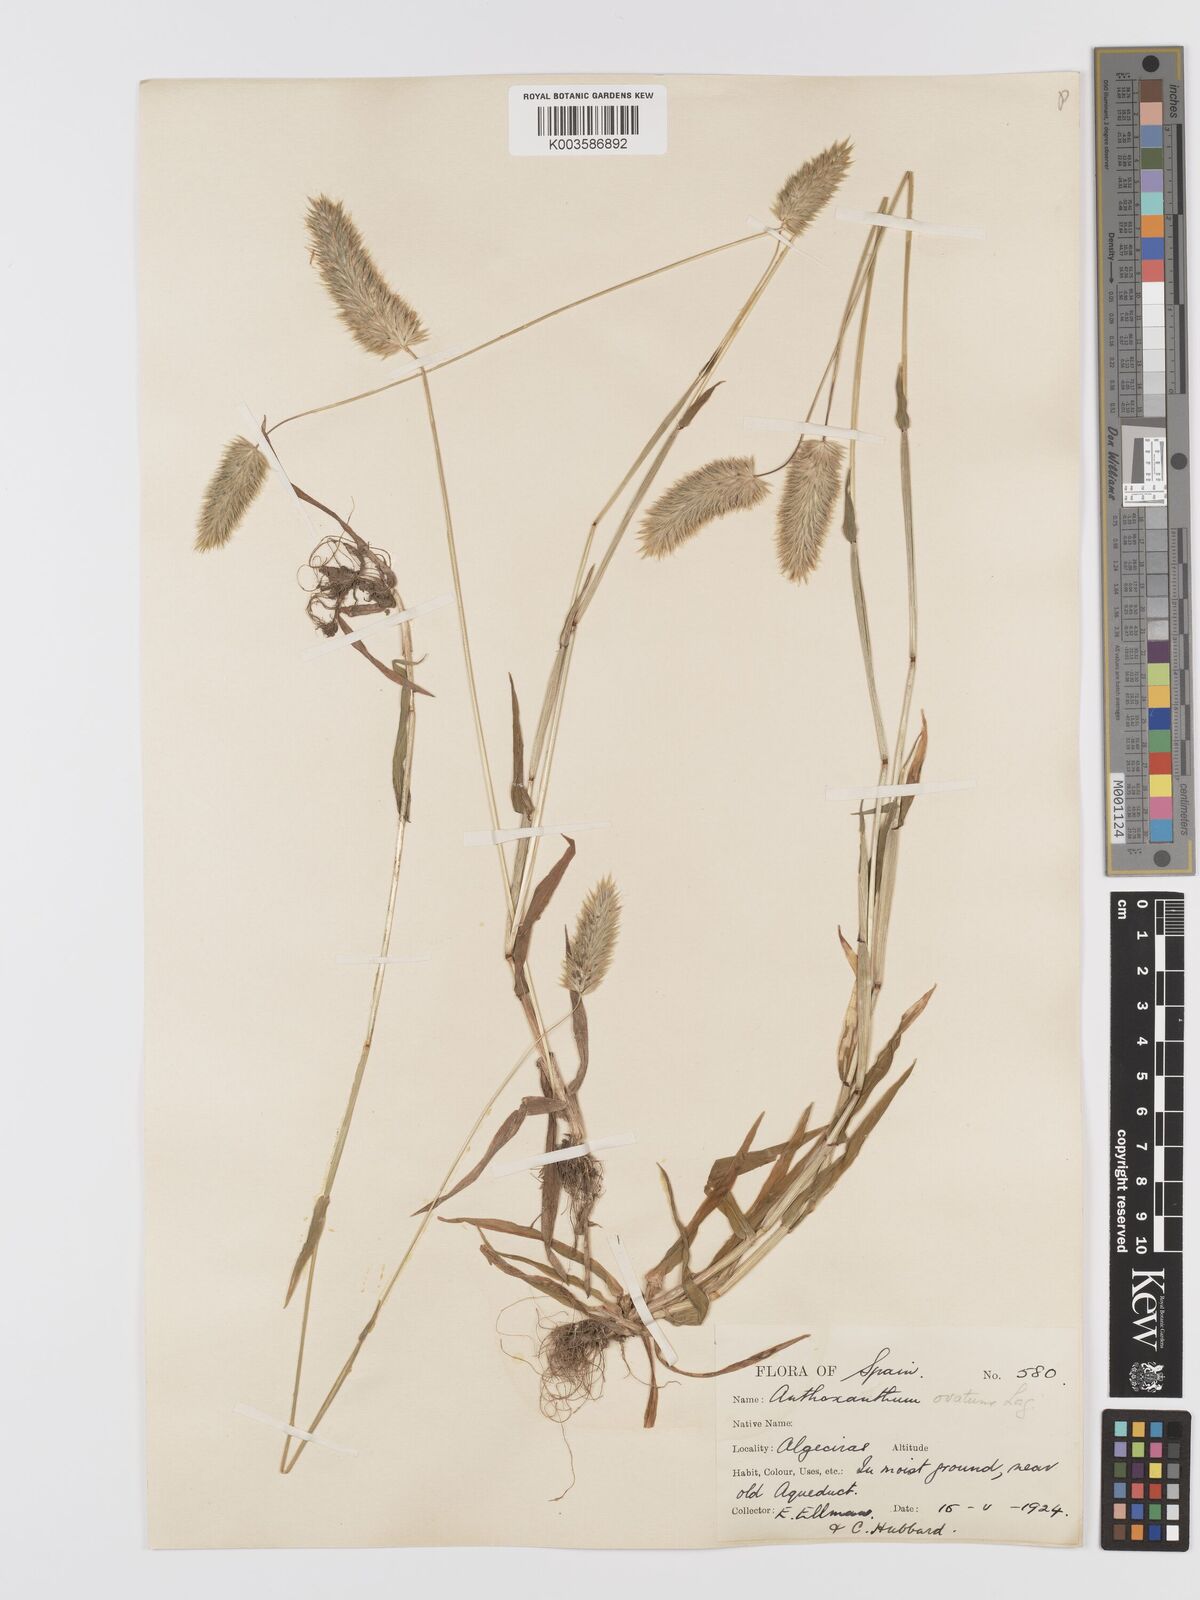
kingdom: Plantae
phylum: Tracheophyta
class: Liliopsida
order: Poales
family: Poaceae
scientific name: Poaceae
